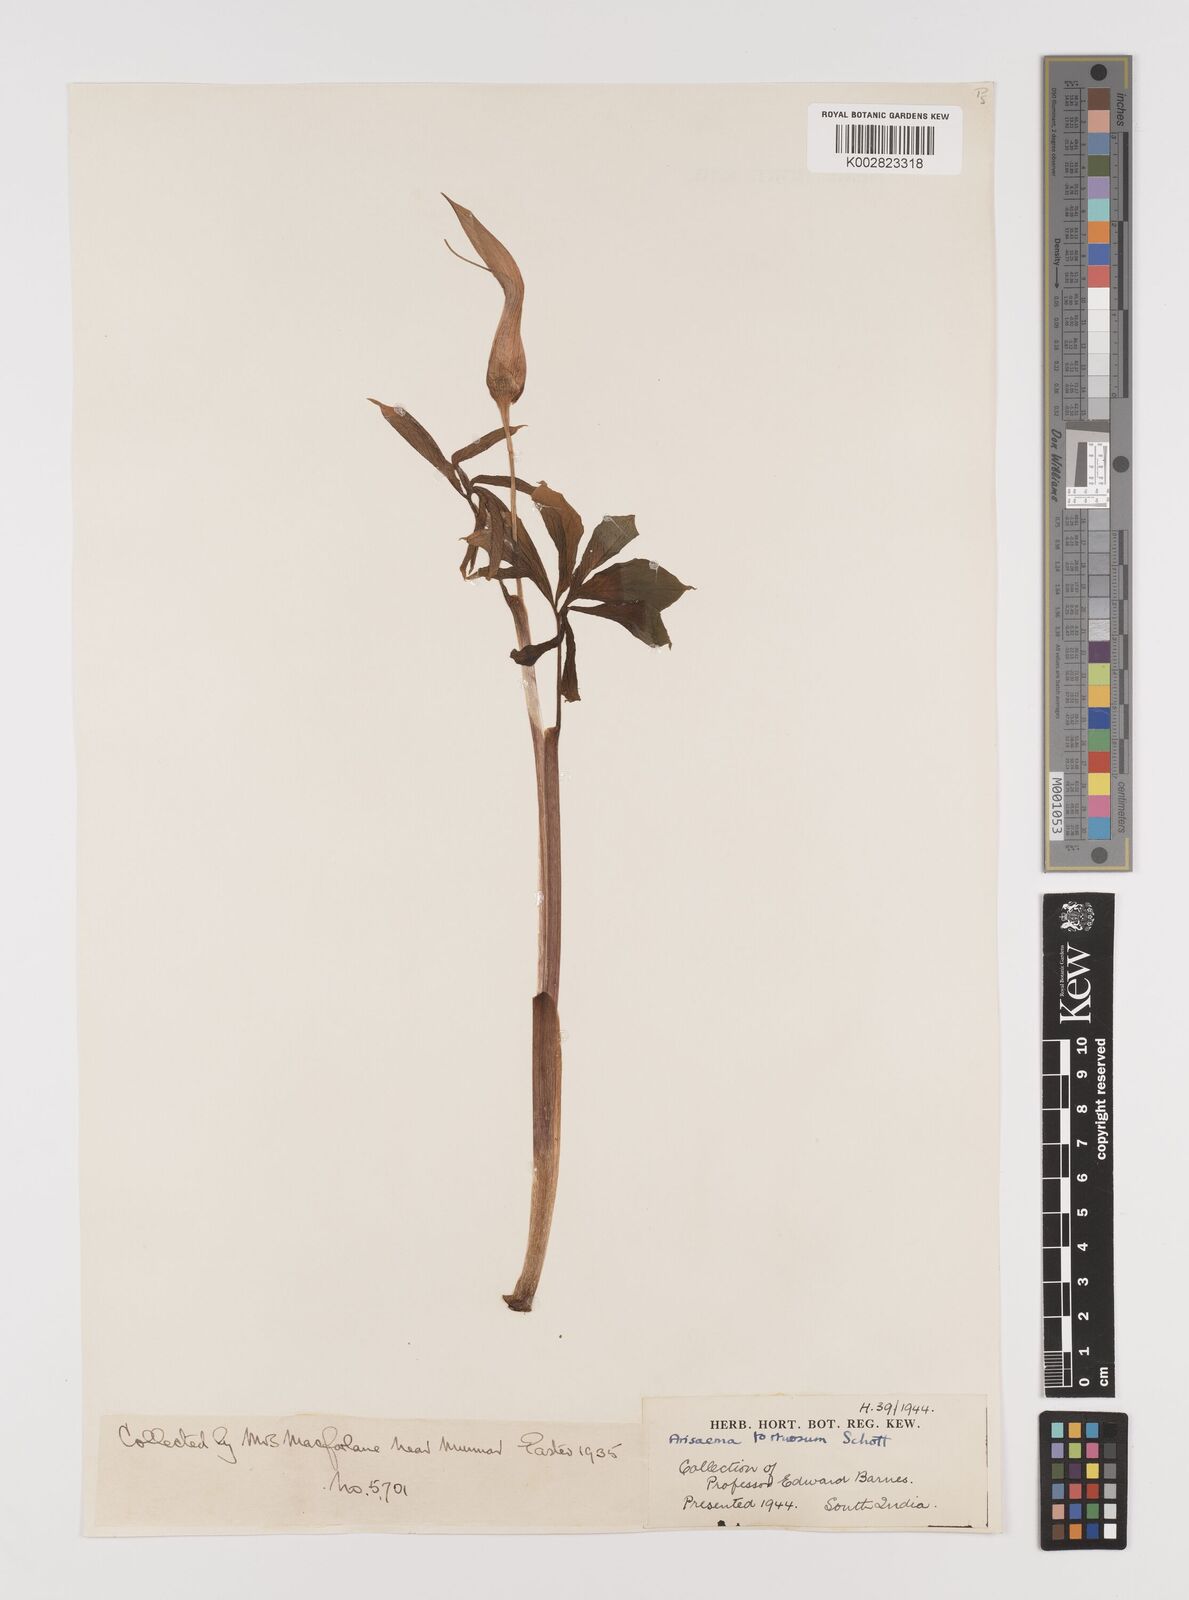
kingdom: Plantae
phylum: Tracheophyta
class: Liliopsida
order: Alismatales
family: Araceae
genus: Arisaema
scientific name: Arisaema tortuosum
